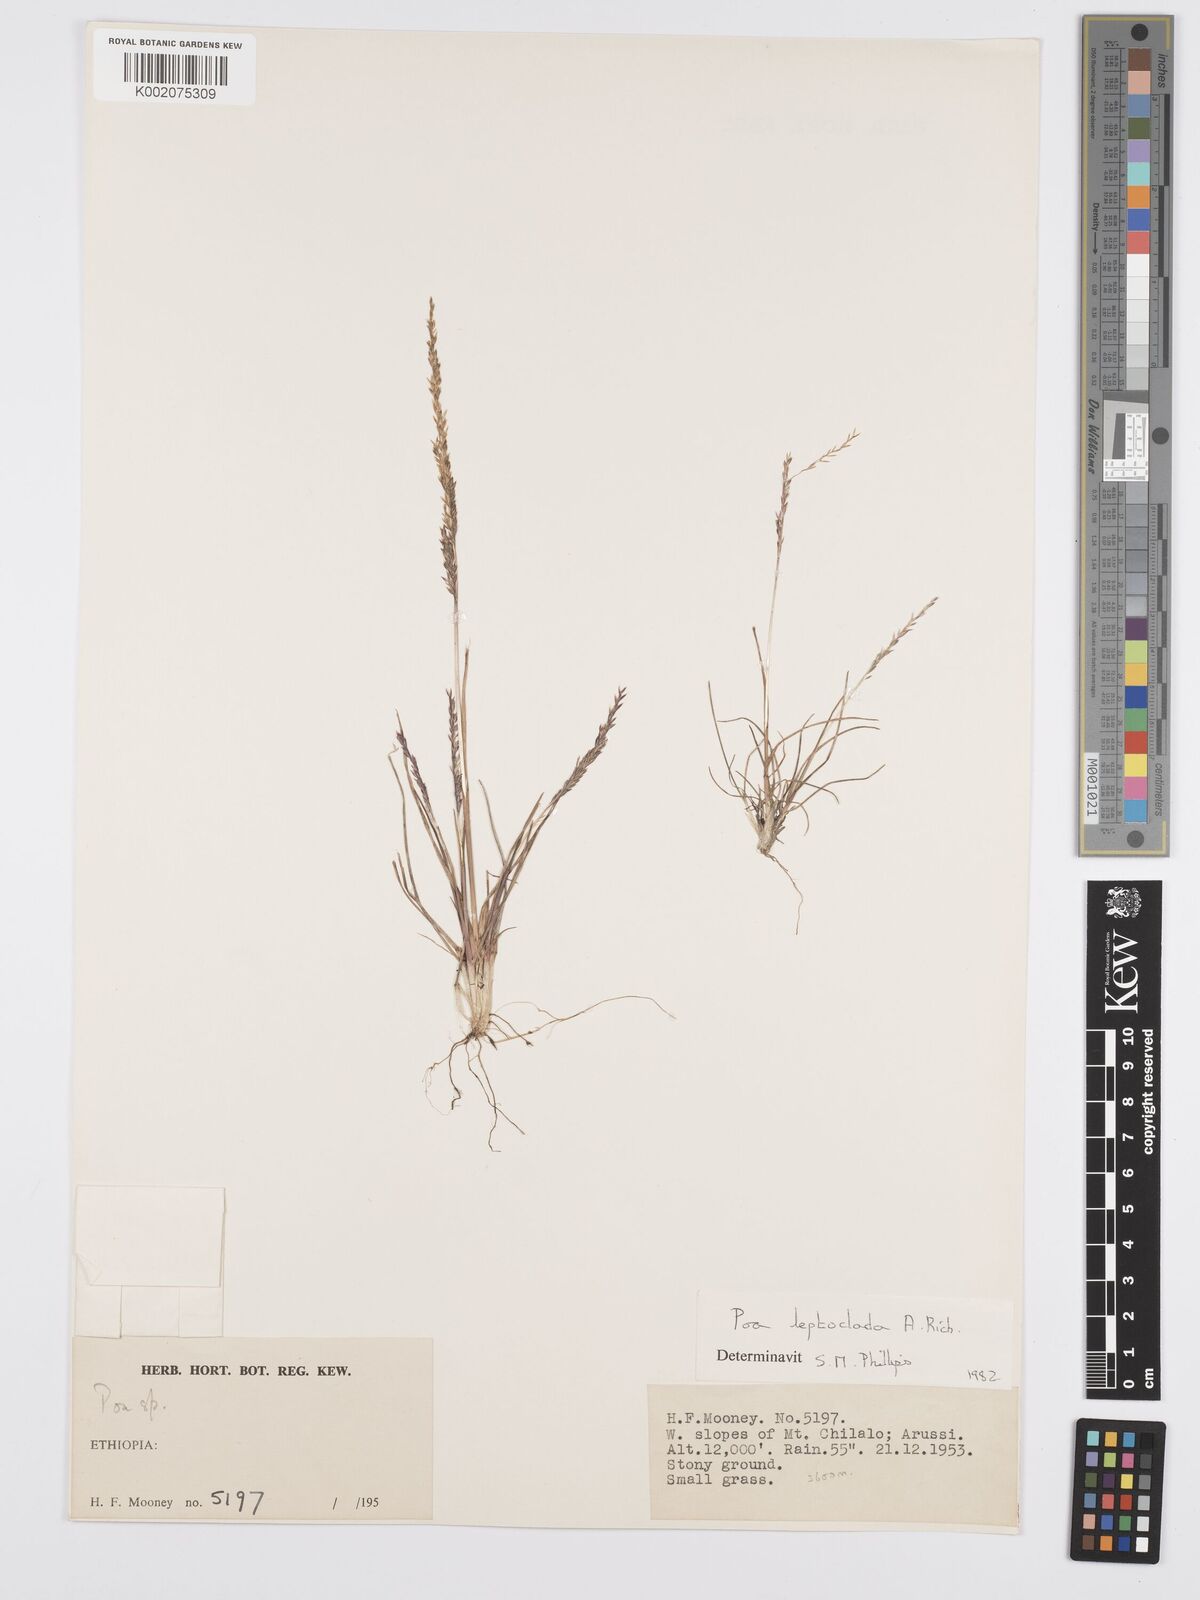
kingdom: Plantae
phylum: Tracheophyta
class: Liliopsida
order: Poales
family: Poaceae
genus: Poa
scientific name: Poa leptoclada
